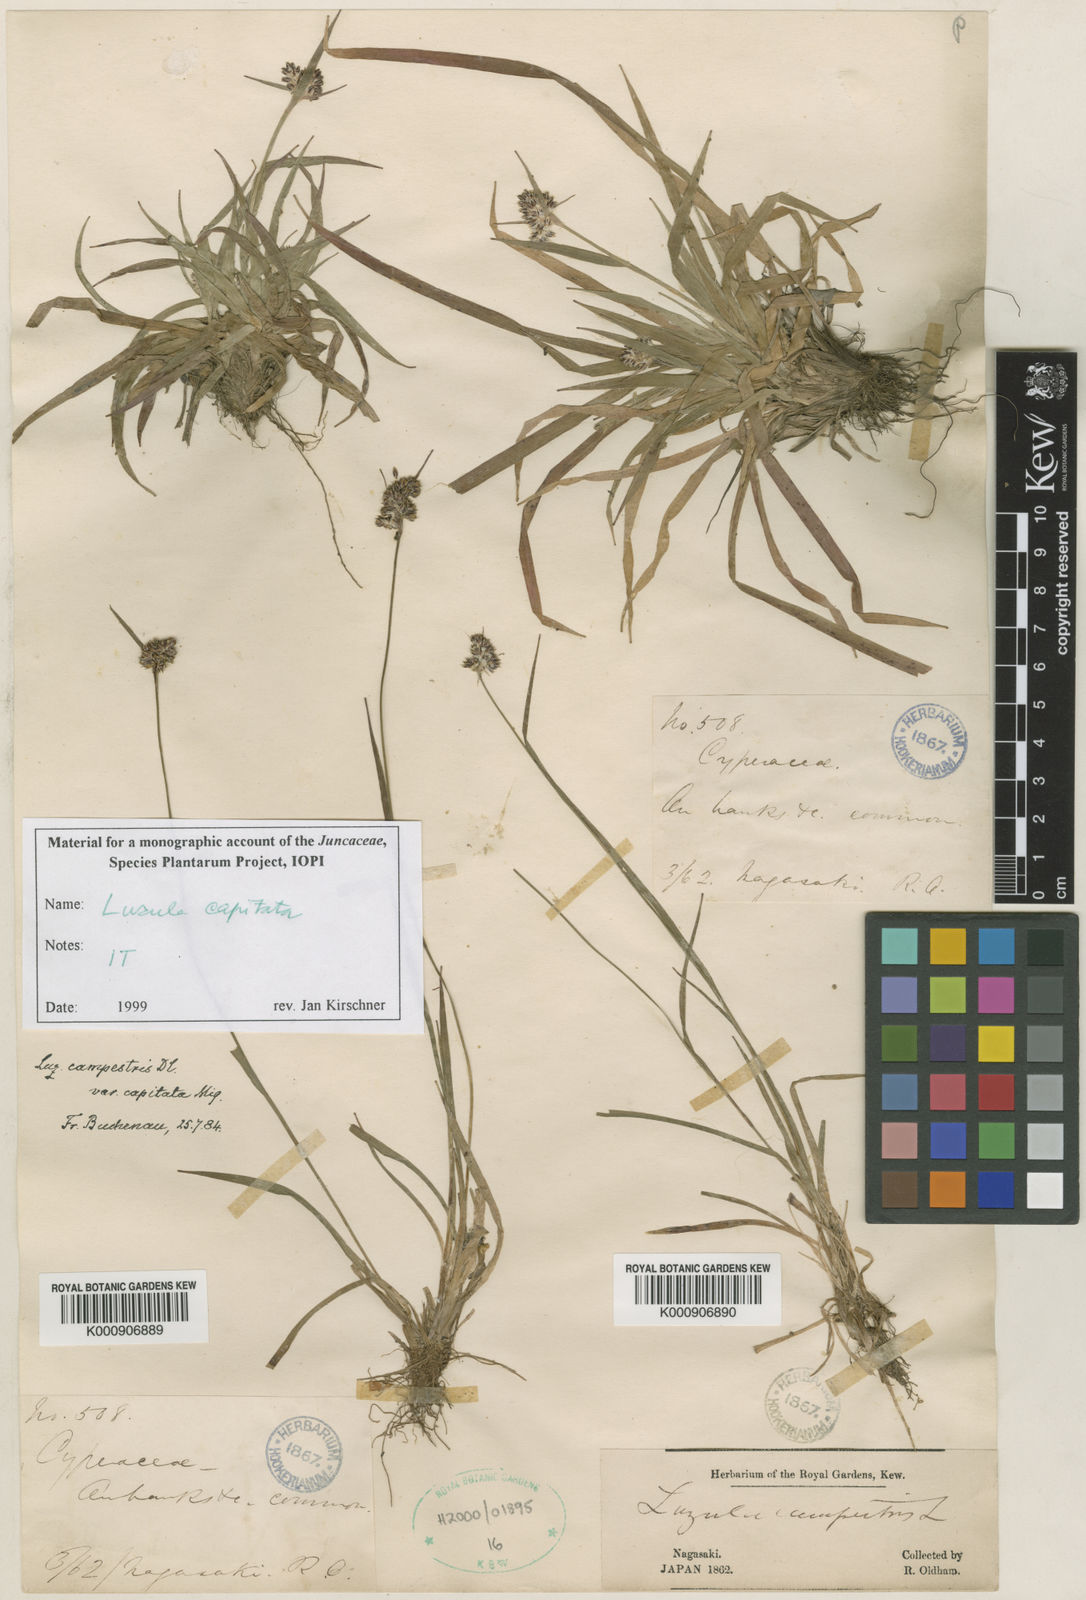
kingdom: Plantae
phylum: Tracheophyta
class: Liliopsida
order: Poales
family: Juncaceae
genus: Luzula
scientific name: Luzula capitata
